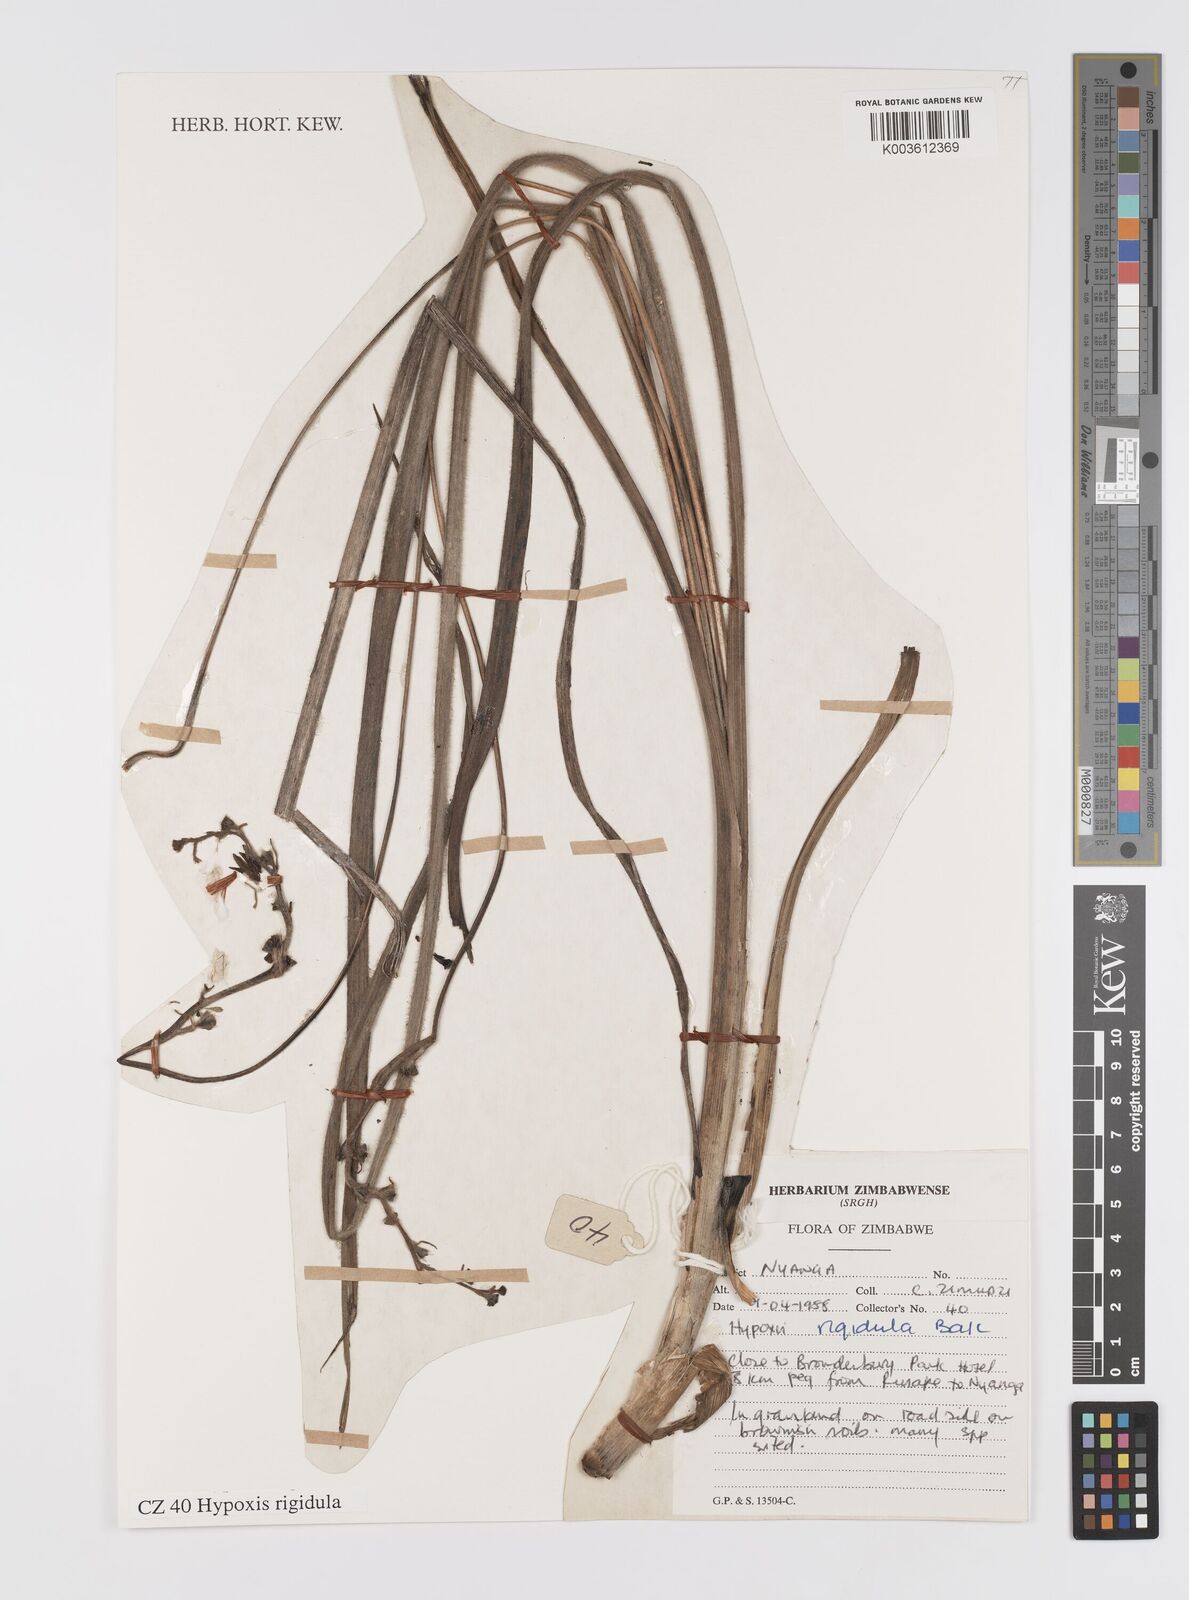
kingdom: Plantae
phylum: Tracheophyta
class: Liliopsida
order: Asparagales
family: Hypoxidaceae
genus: Hypoxis
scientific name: Hypoxis rigidula
